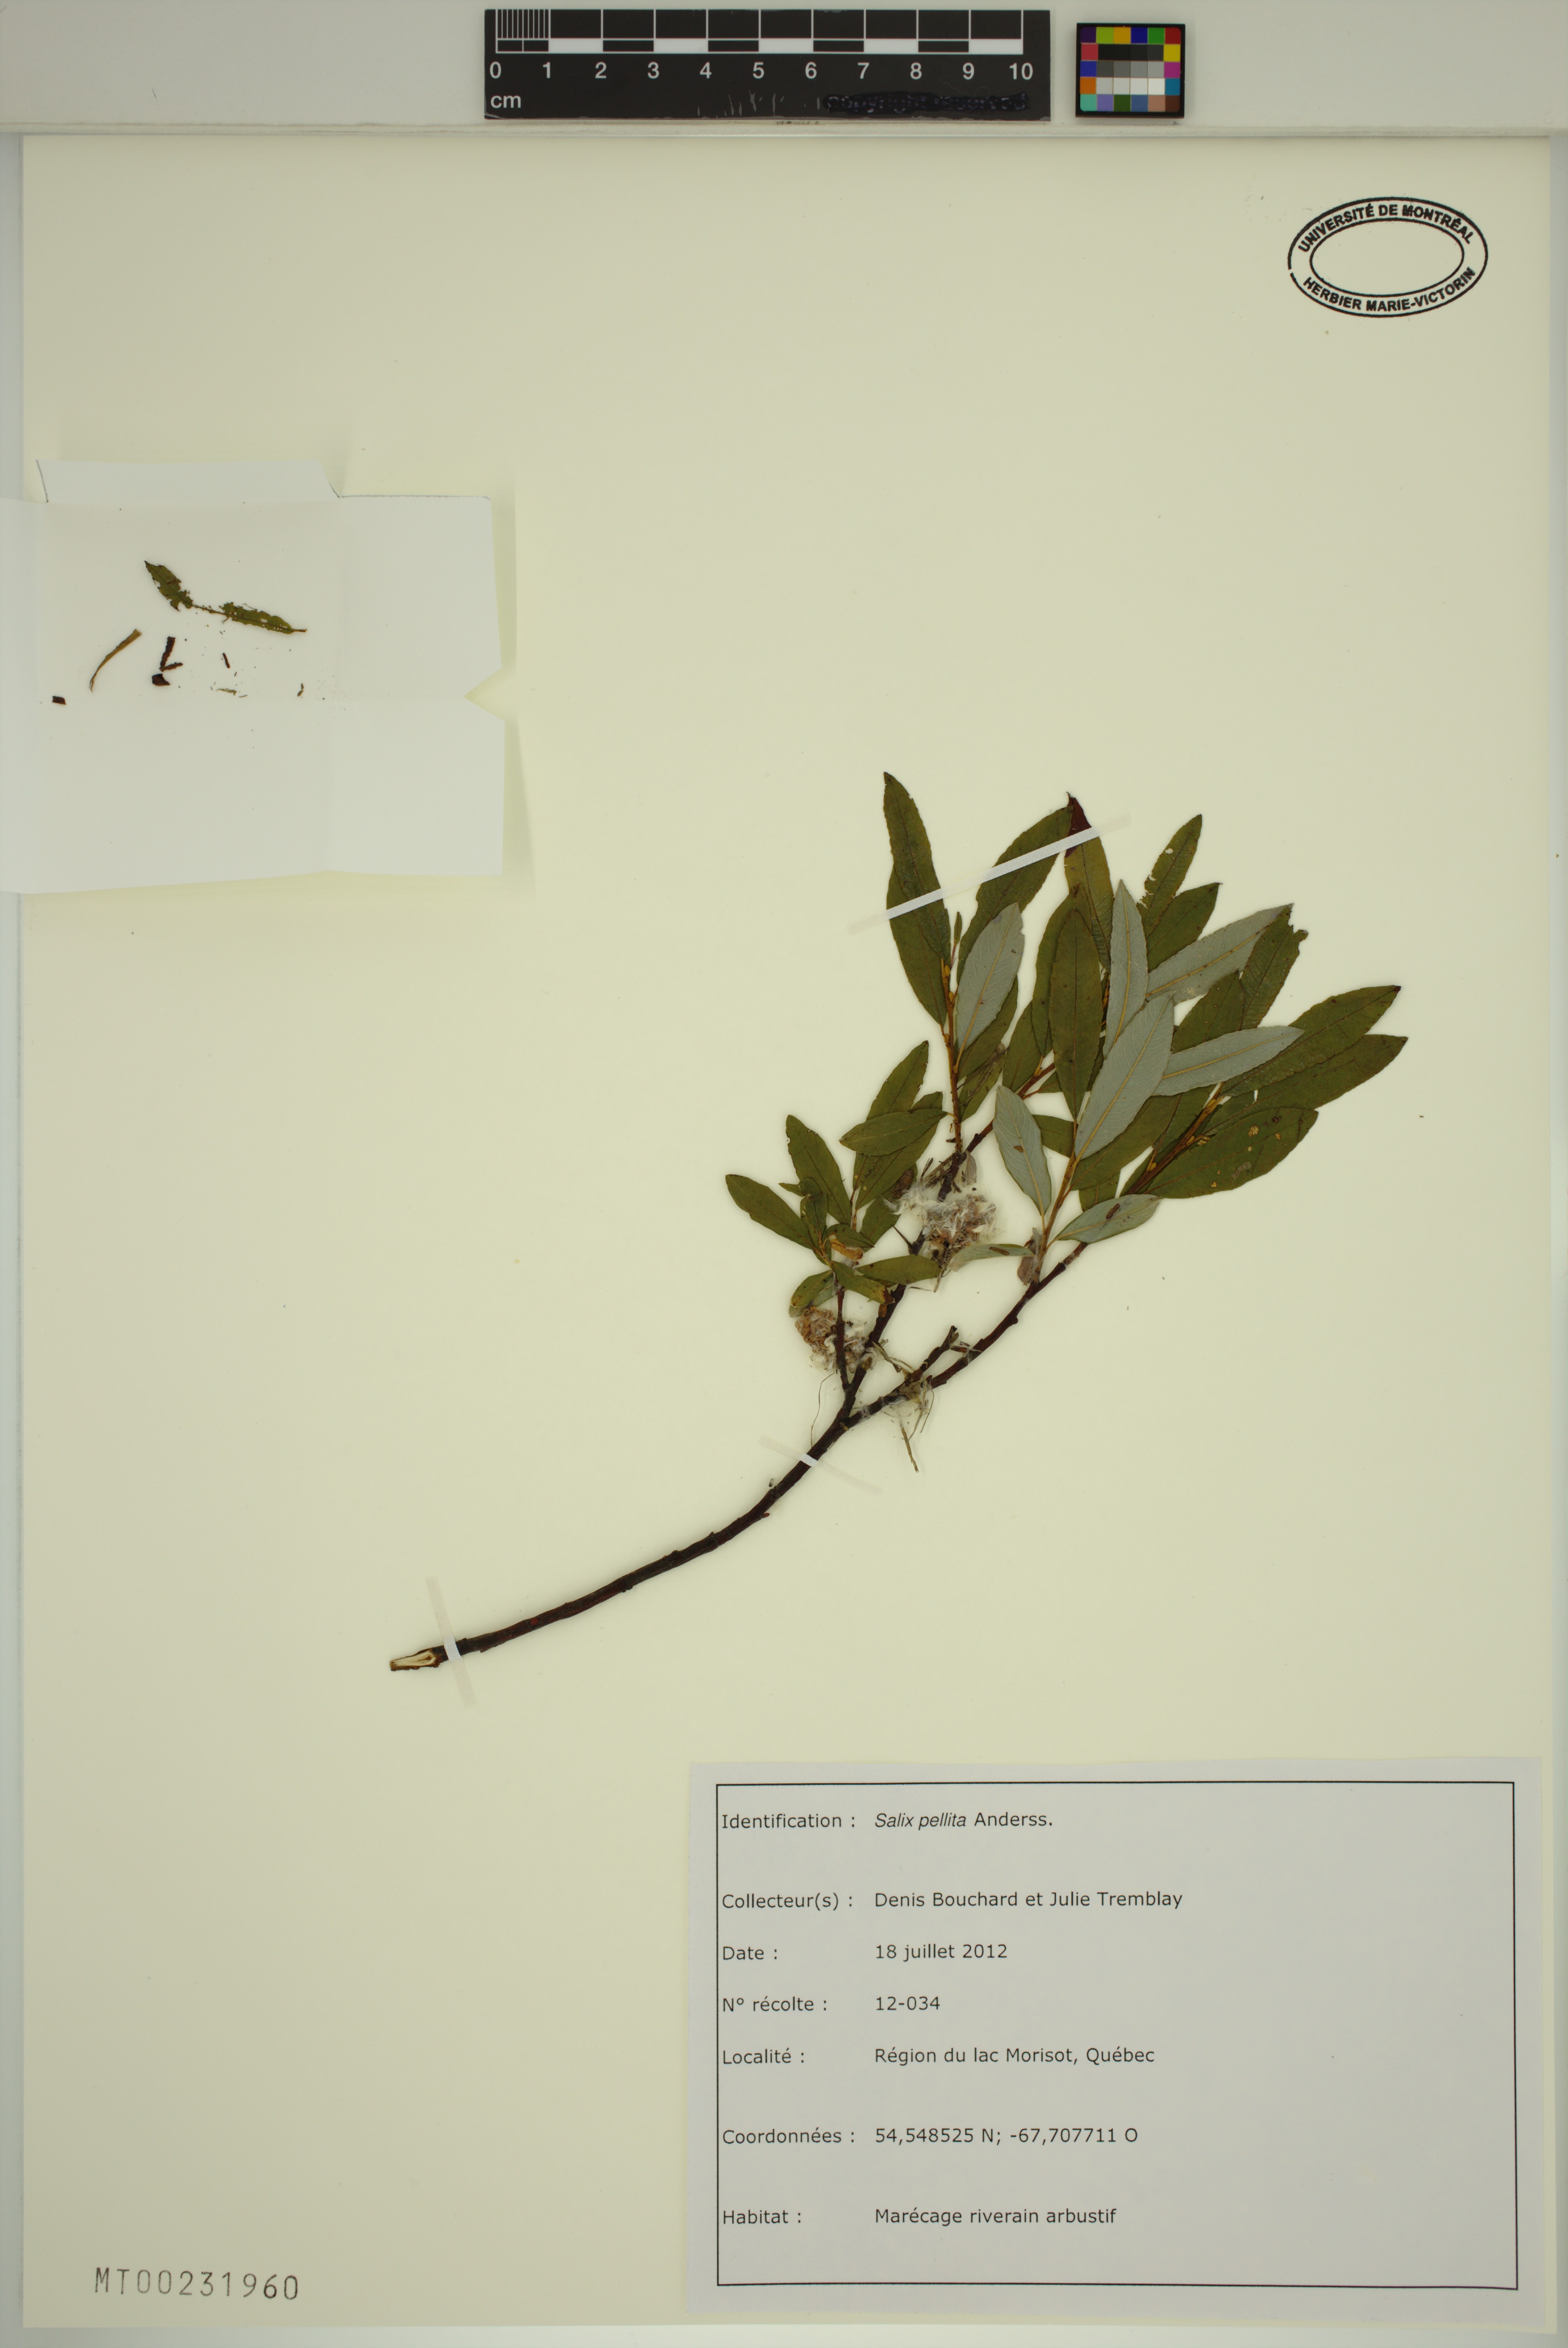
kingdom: Plantae
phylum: Tracheophyta
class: Magnoliopsida
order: Malpighiales
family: Salicaceae
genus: Salix
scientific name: Salix pellita
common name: Satiny willow
